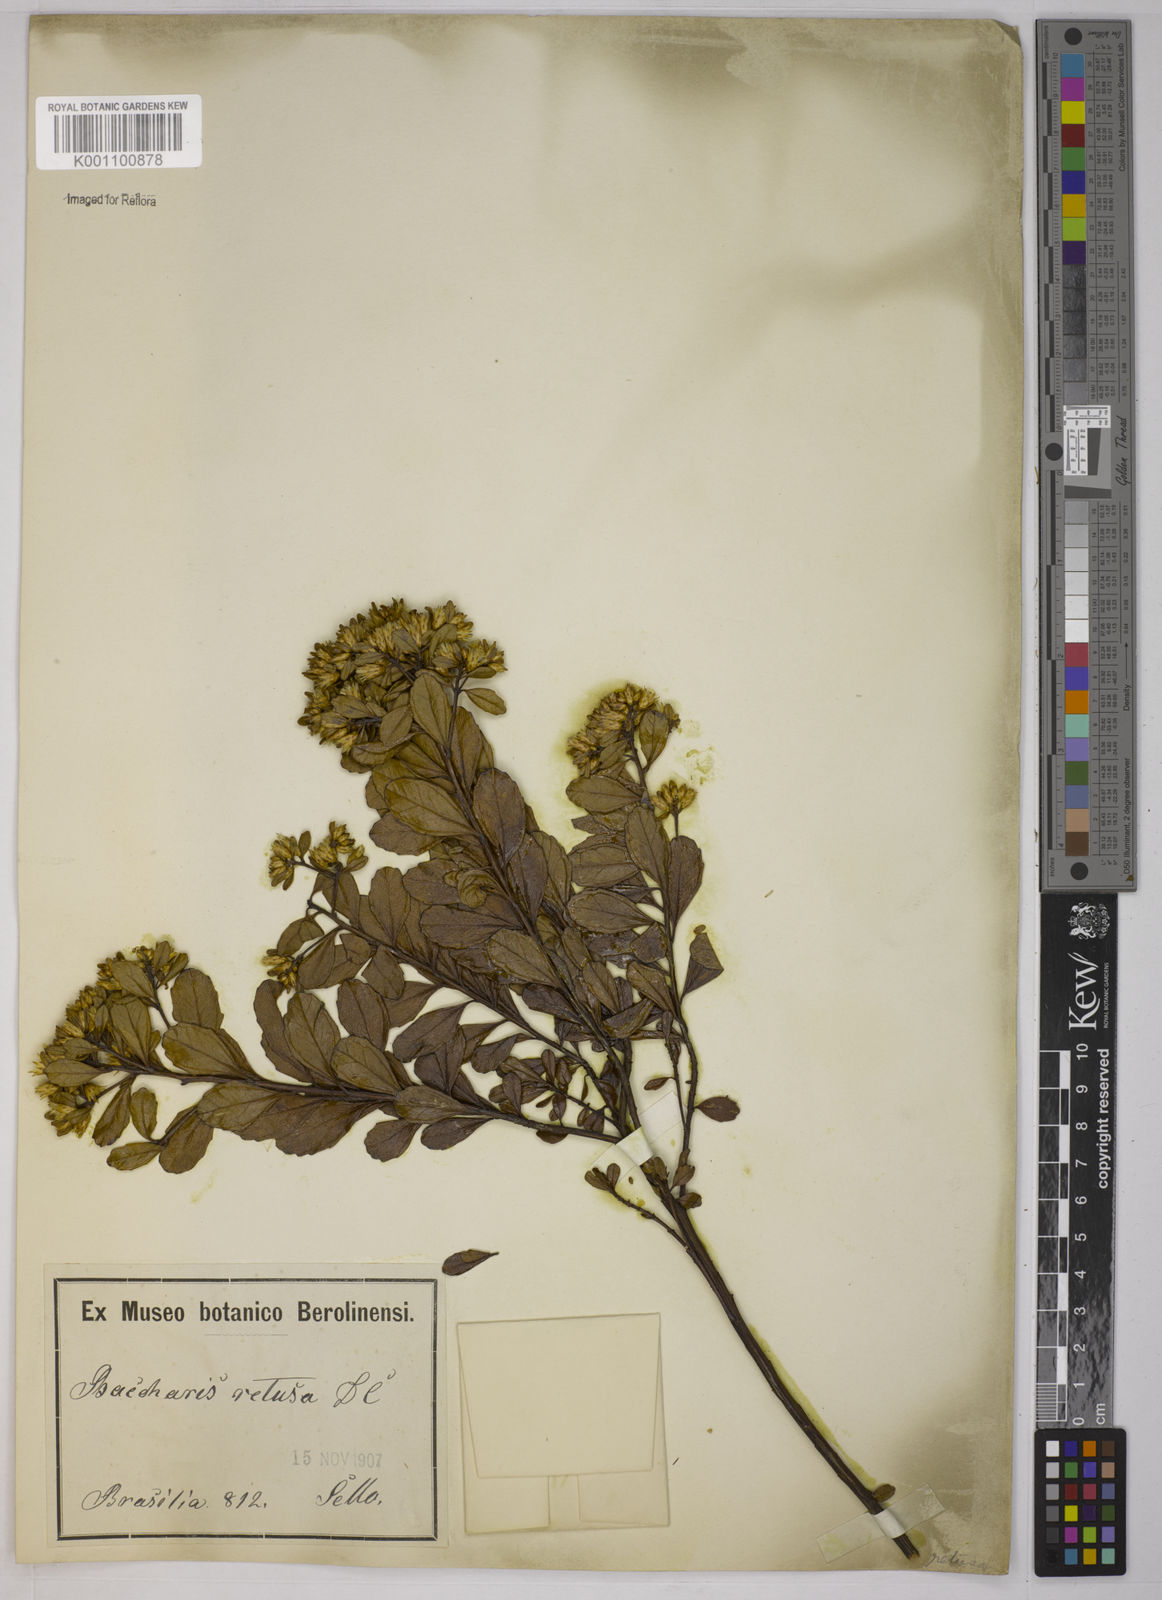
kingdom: Plantae
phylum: Tracheophyta
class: Magnoliopsida
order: Asterales
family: Asteraceae
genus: Baccharis
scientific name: Baccharis retusa
